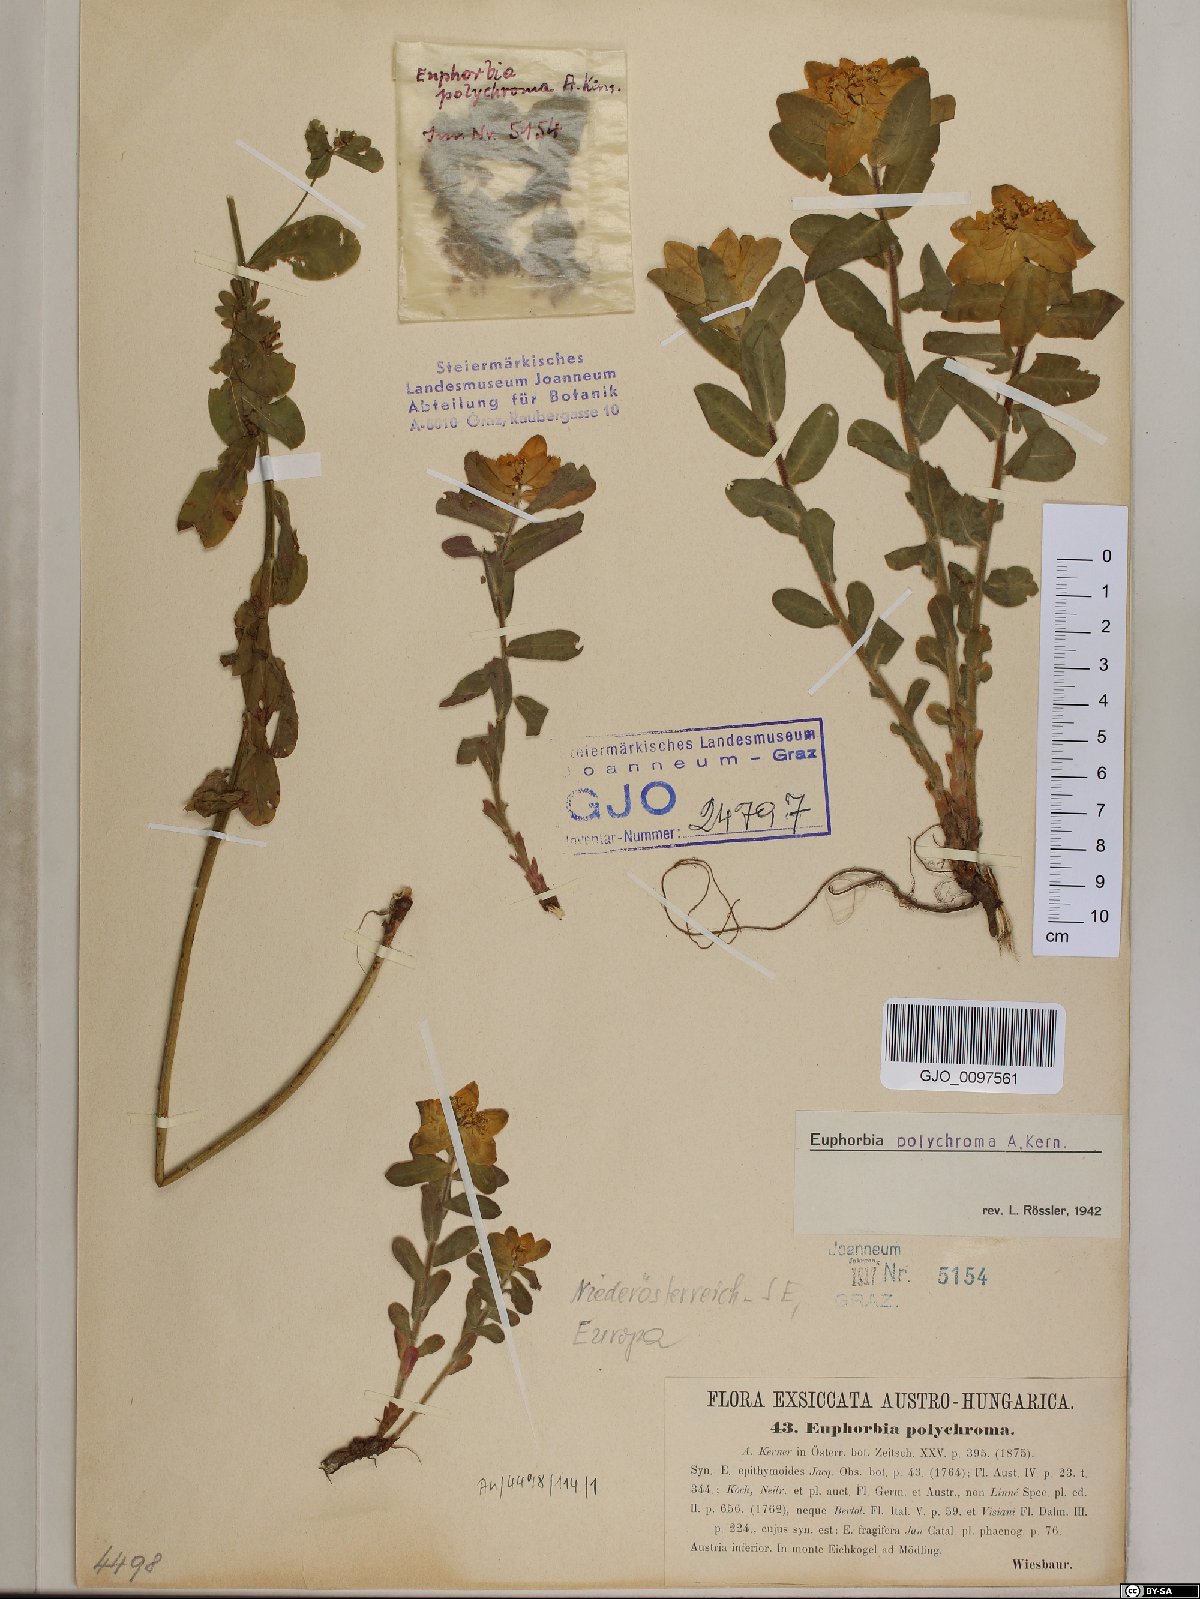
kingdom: Plantae
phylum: Tracheophyta
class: Magnoliopsida
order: Malpighiales
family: Euphorbiaceae
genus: Euphorbia
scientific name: Euphorbia epithymoides
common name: Cushion spurge
